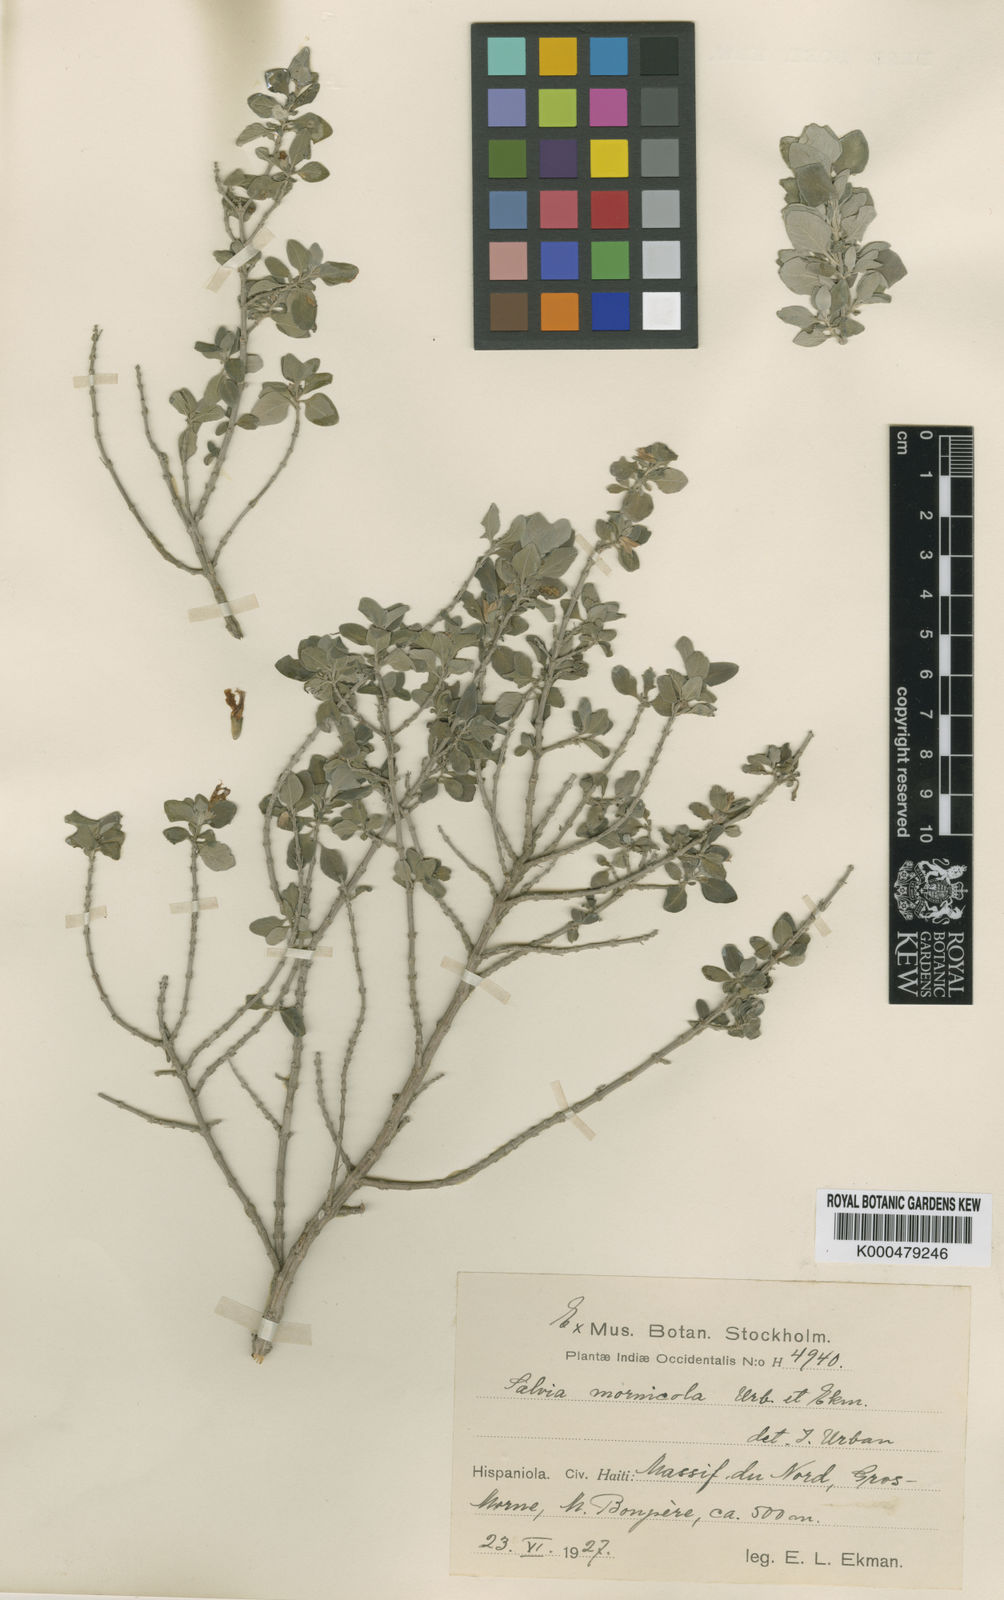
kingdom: Plantae
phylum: Tracheophyta
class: Magnoliopsida
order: Lamiales
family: Lamiaceae
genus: Salvia
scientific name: Salvia mornicola
